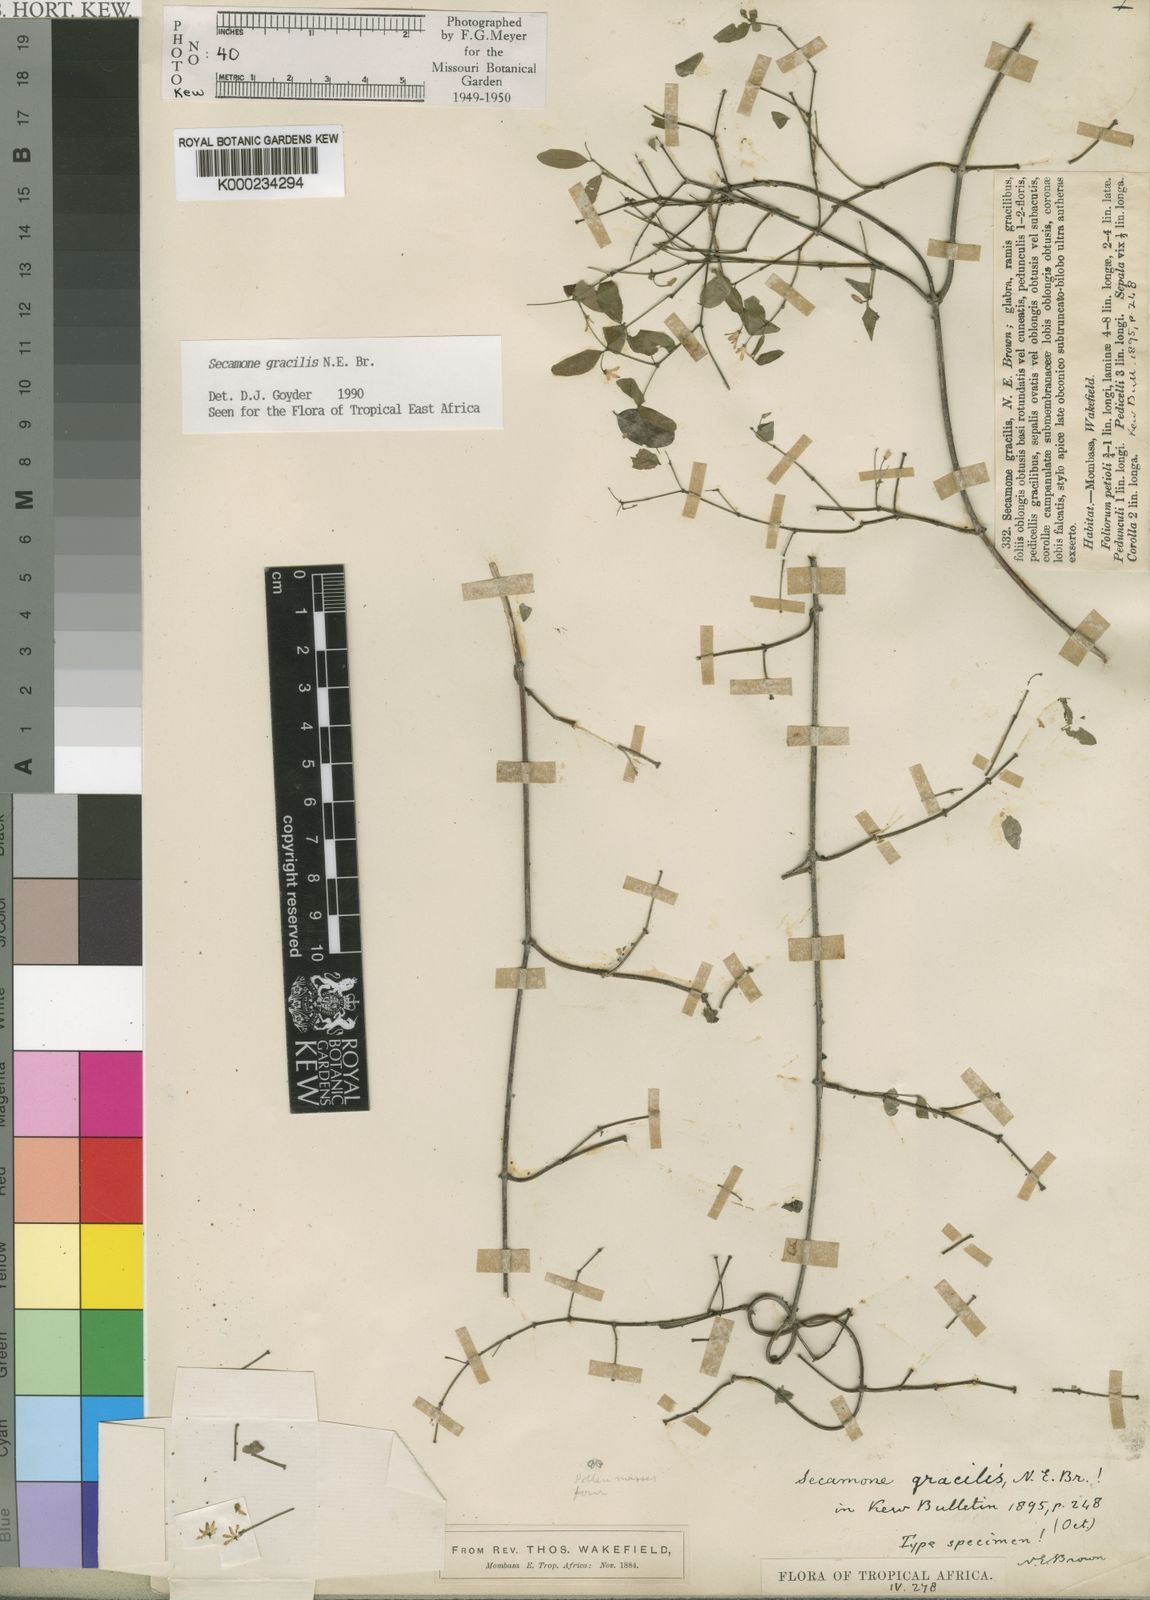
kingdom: Plantae
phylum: Tracheophyta
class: Magnoliopsida
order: Gentianales
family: Apocynaceae
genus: Secamone
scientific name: Secamone gracilis
